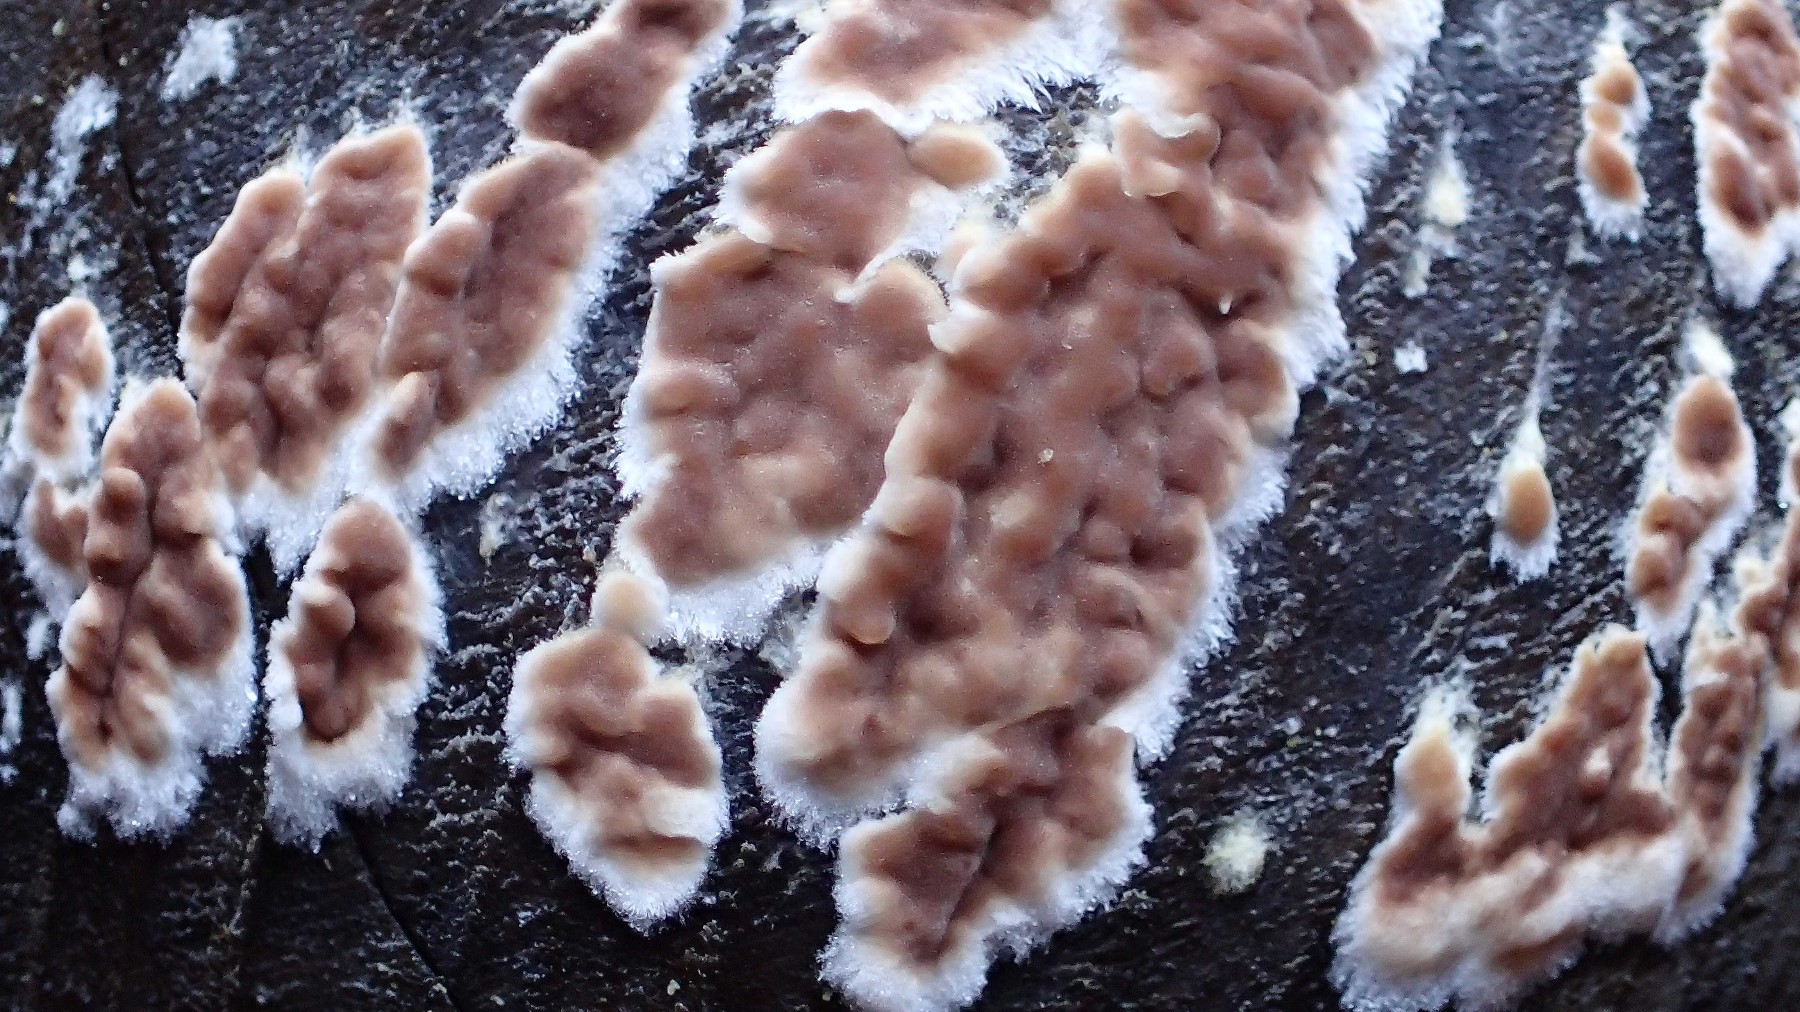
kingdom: Fungi
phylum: Basidiomycota
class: Agaricomycetes
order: Agaricales
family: Physalacriaceae
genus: Cylindrobasidium
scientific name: Cylindrobasidium evolvens
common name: sprækkehinde
